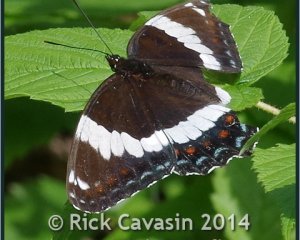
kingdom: Animalia
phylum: Arthropoda
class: Insecta
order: Lepidoptera
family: Nymphalidae
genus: Limenitis
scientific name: Limenitis arthemis
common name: Red-spotted Admiral
